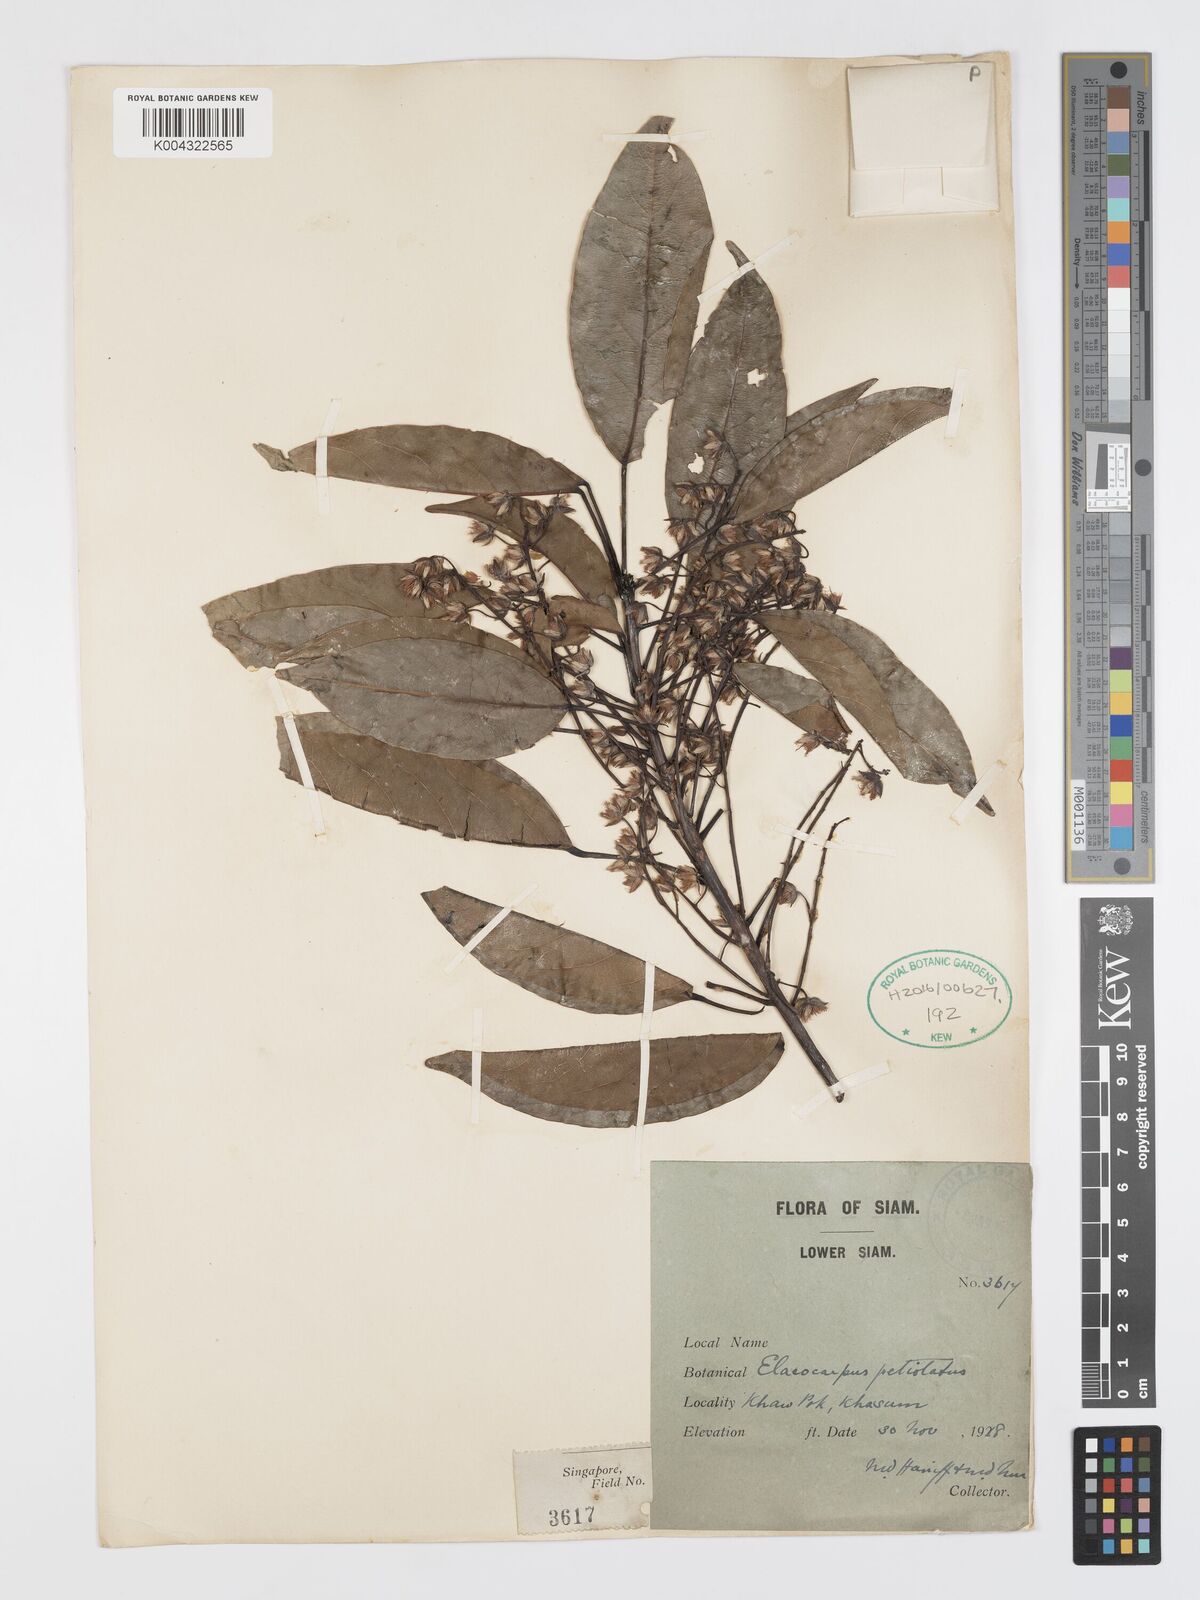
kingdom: Plantae
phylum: Tracheophyta
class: Magnoliopsida
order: Oxalidales
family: Elaeocarpaceae
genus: Elaeocarpus
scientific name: Elaeocarpus petiolatus
